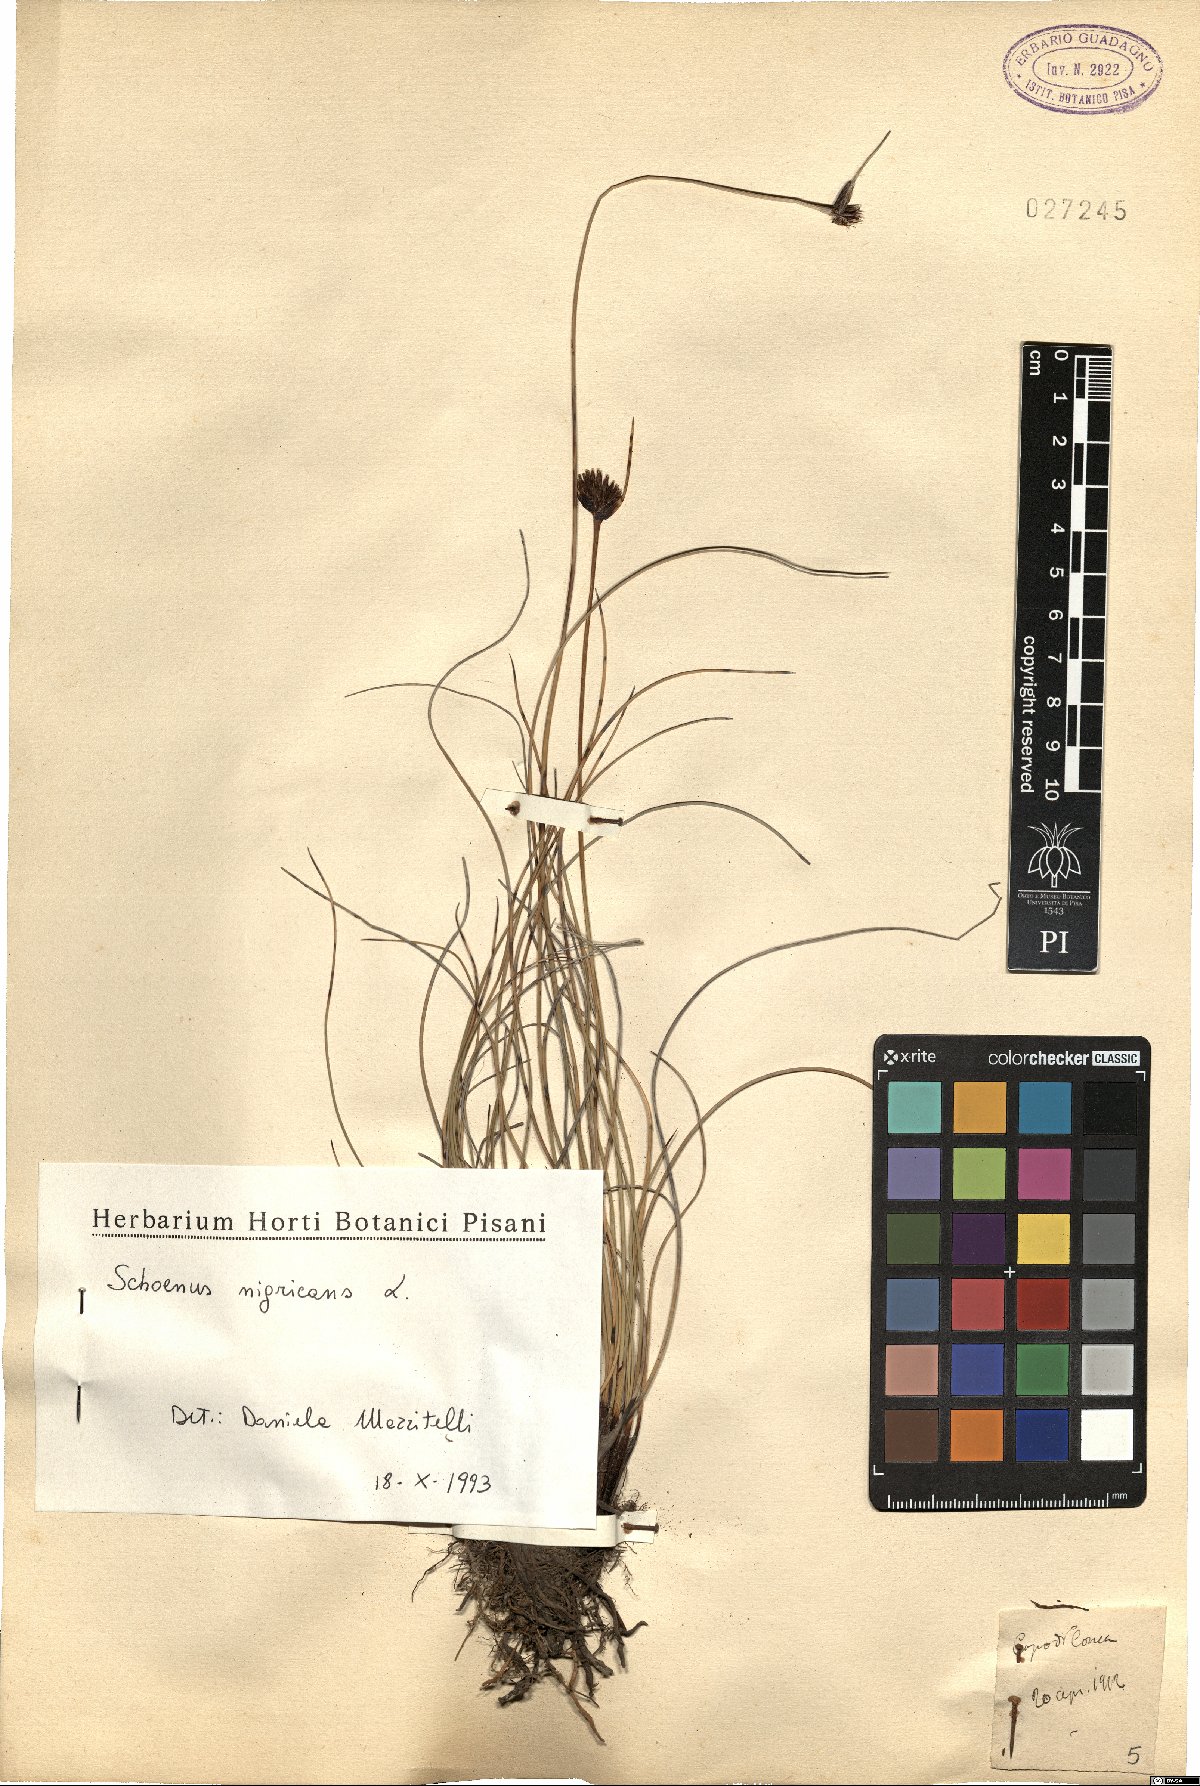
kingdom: Plantae
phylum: Tracheophyta
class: Liliopsida
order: Poales
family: Cyperaceae
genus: Schoenus
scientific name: Schoenus nigricans
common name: Black bog-rush
